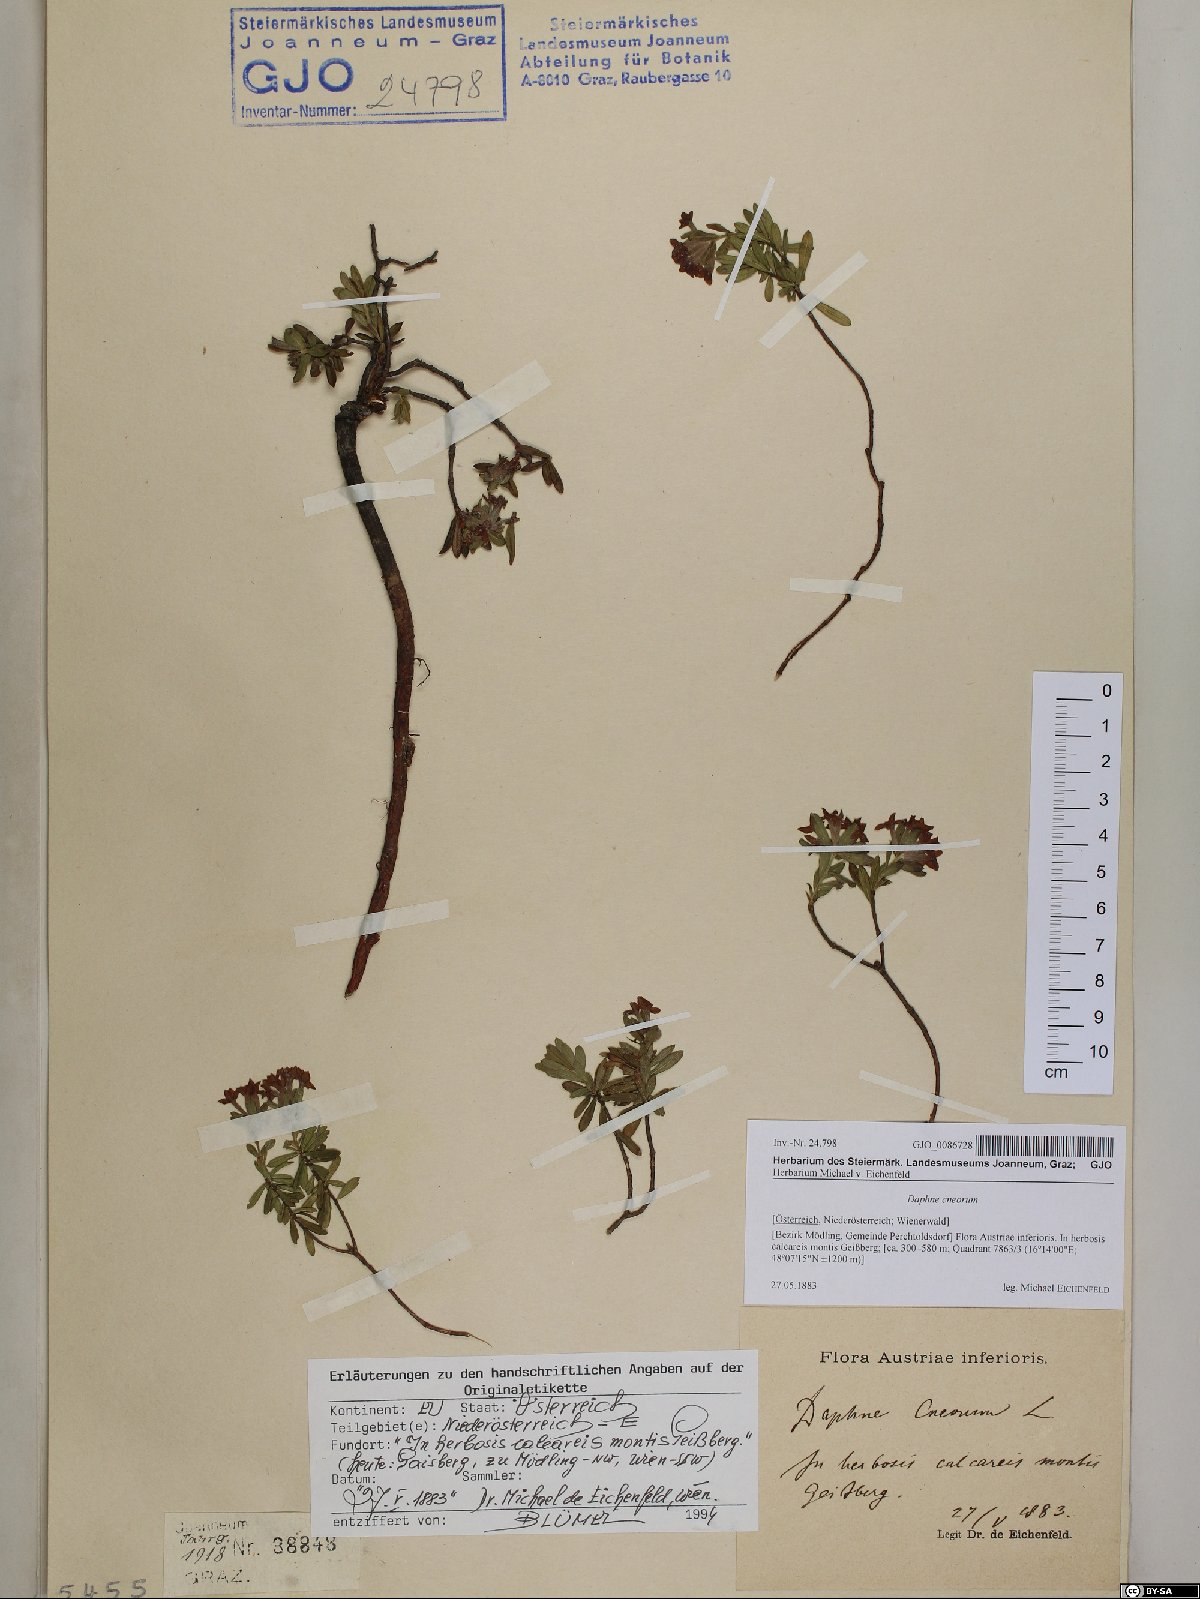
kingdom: Plantae
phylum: Tracheophyta
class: Magnoliopsida
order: Malvales
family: Thymelaeaceae
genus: Daphne
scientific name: Daphne cneorum
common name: Garland-flower
